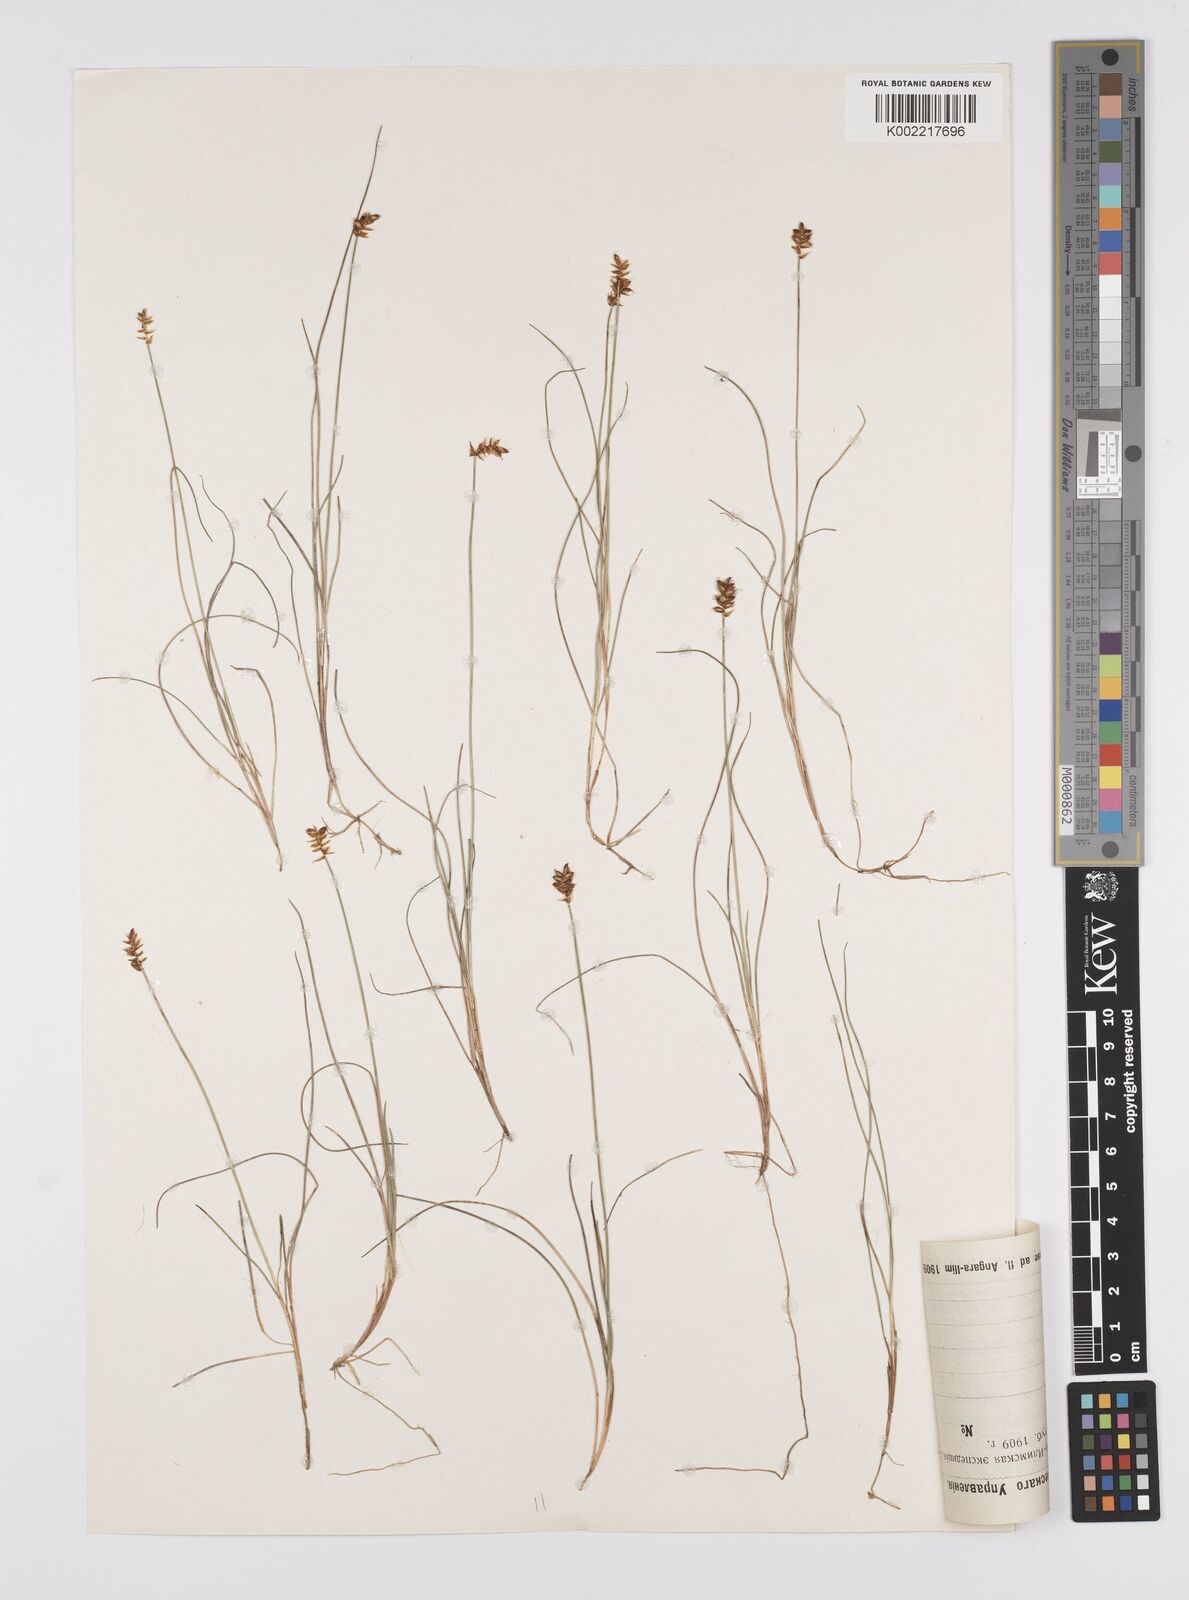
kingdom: Plantae
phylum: Tracheophyta
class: Liliopsida
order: Poales
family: Cyperaceae
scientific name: Cyperaceae
